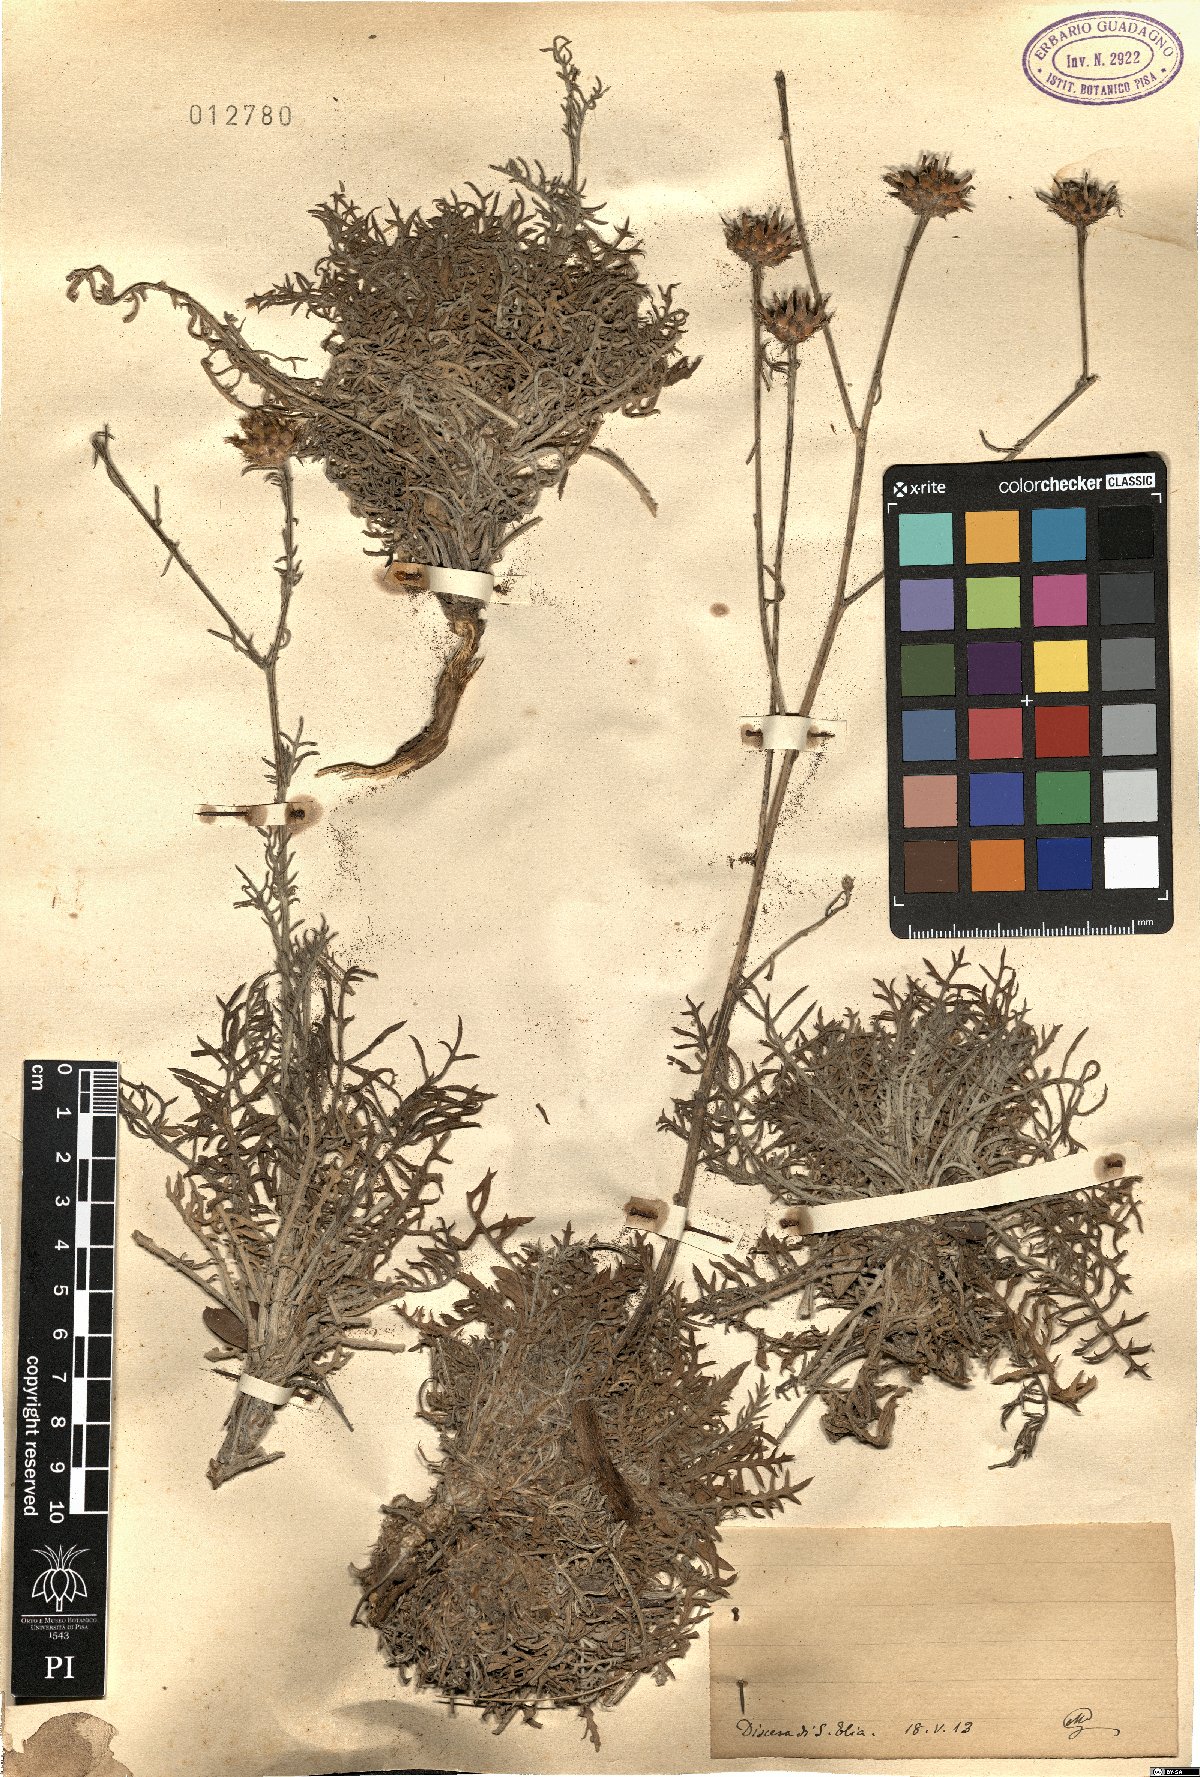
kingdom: Plantae
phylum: Tracheophyta
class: Magnoliopsida
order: Asterales
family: Asteraceae
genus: Centaurea
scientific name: Centaurea
